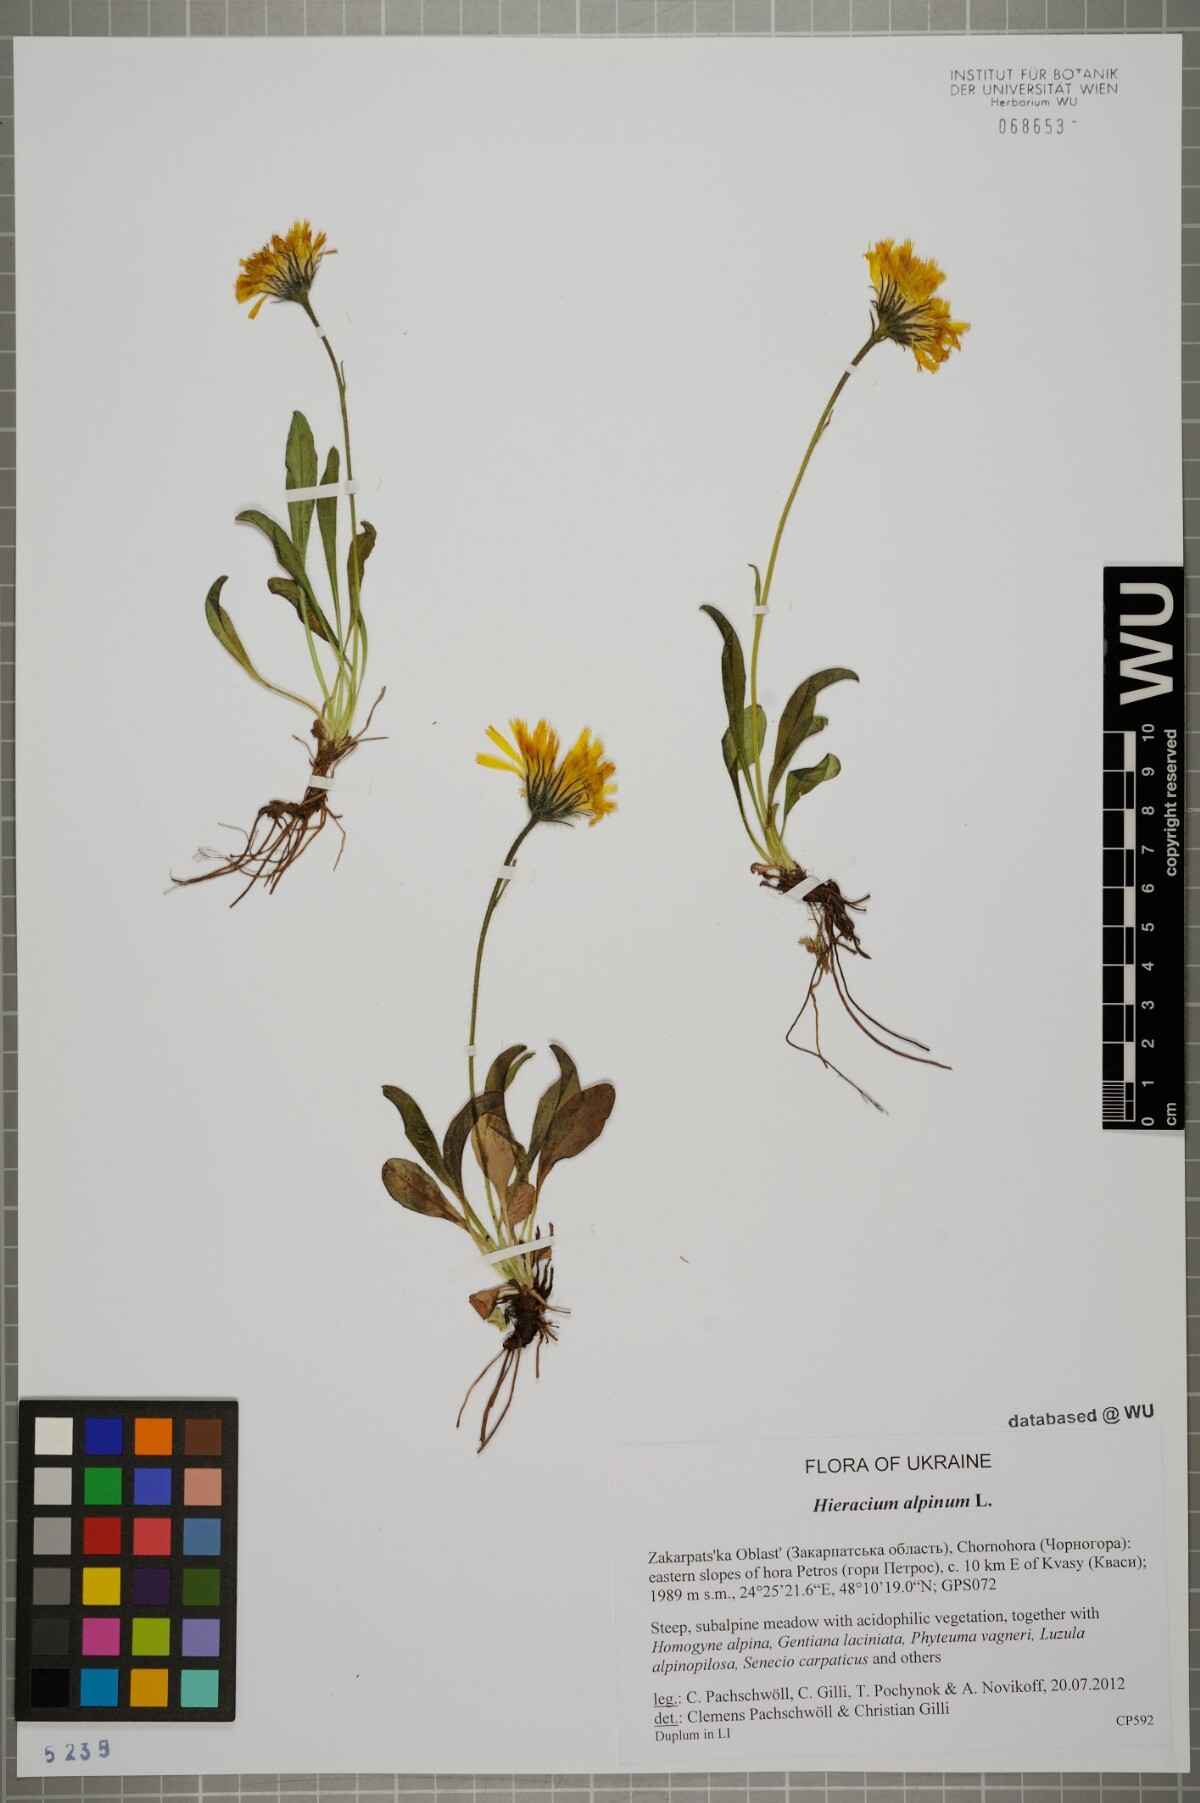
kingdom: Plantae
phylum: Tracheophyta
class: Magnoliopsida
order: Asterales
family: Asteraceae
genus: Hieracium
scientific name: Hieracium alpinum
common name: Alpine hawkweed
